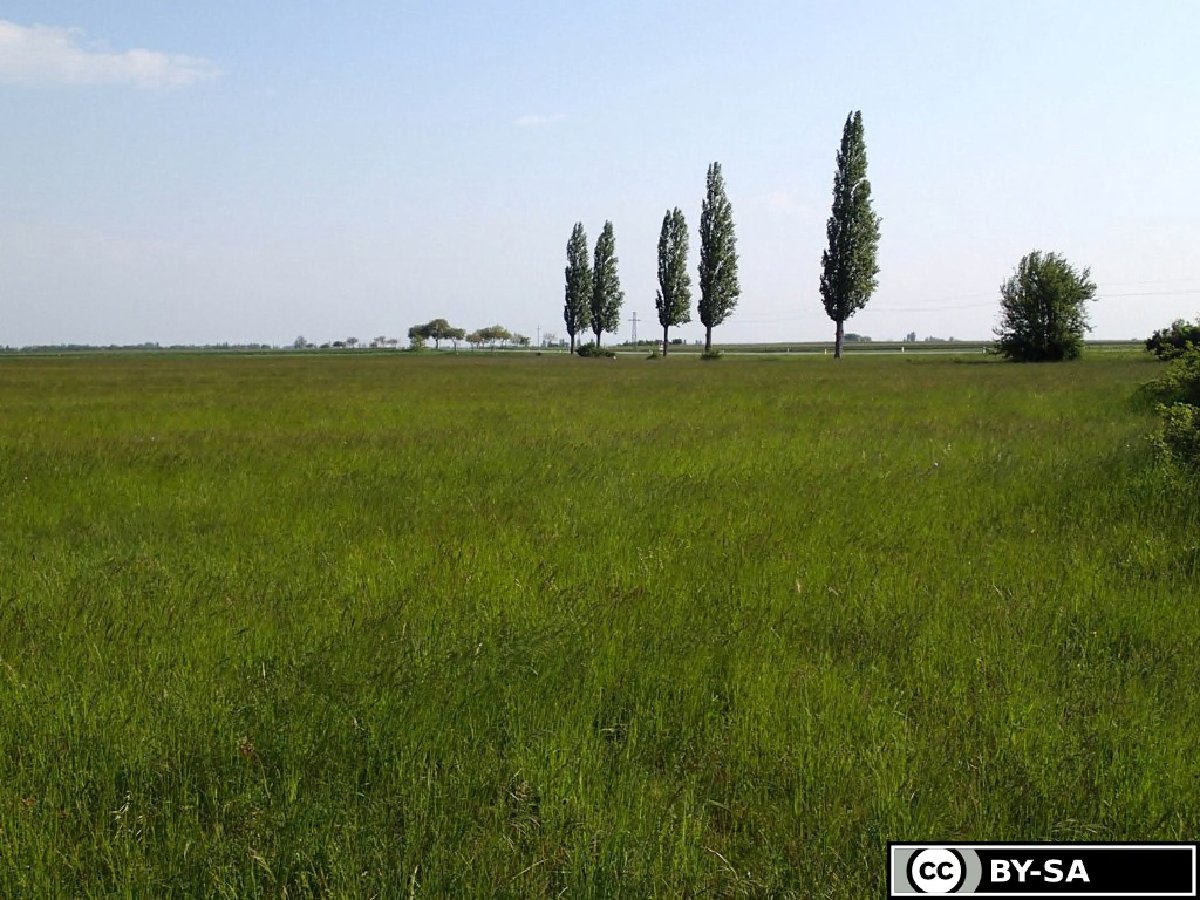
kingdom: Plantae
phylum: Tracheophyta
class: Magnoliopsida
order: Boraginales
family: Boraginaceae
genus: Onosma
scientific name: Onosma arenaria
